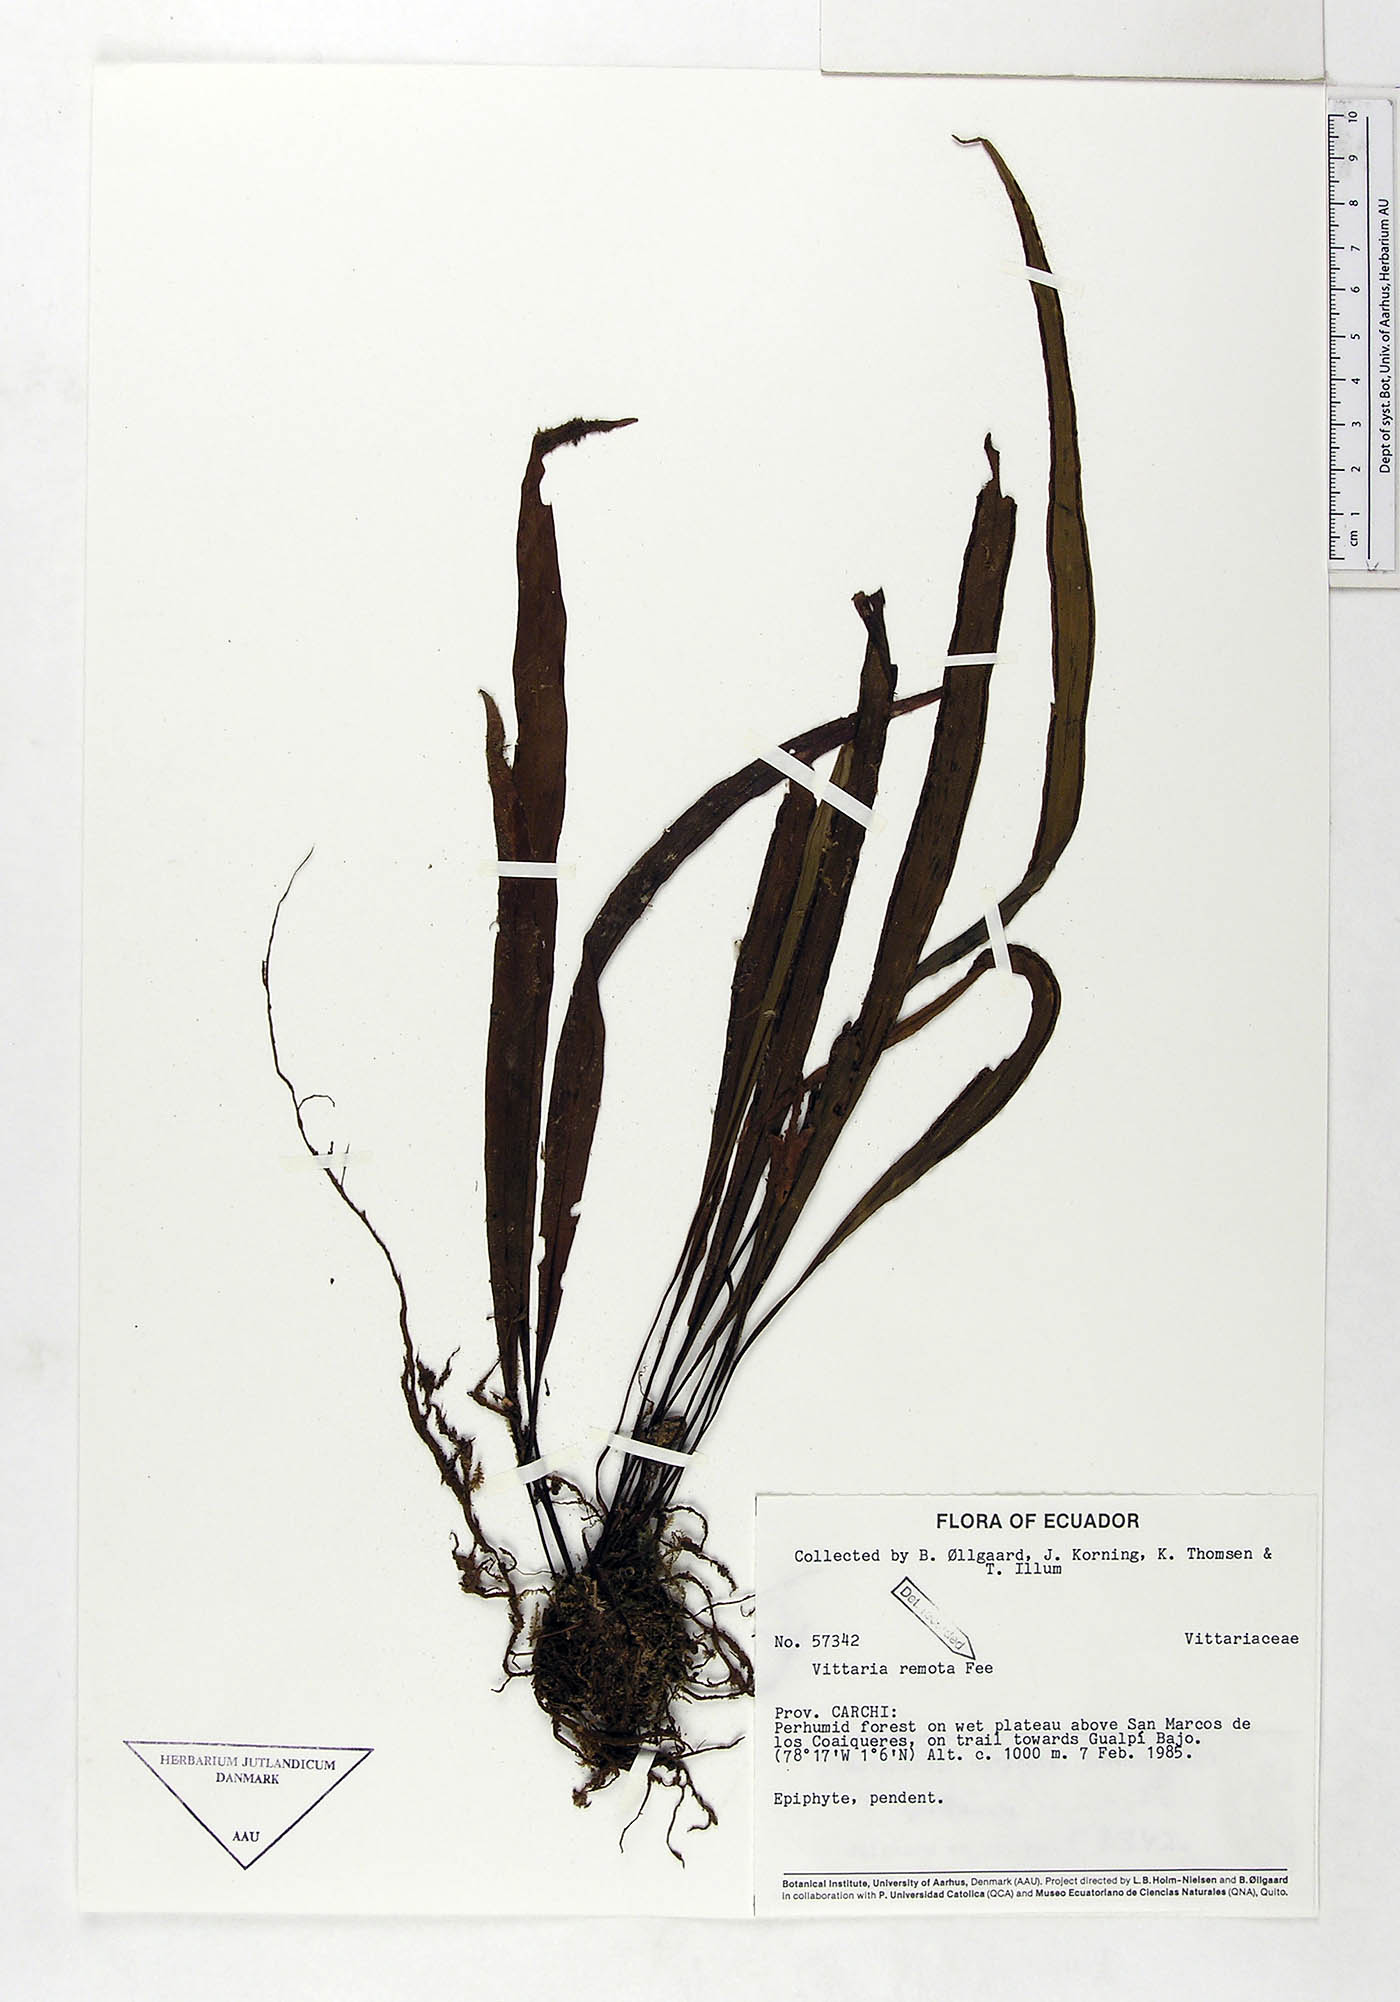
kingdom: Plantae
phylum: Tracheophyta
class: Polypodiopsida
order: Polypodiales
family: Pteridaceae
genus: Radiovittaria
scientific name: Radiovittaria remota
